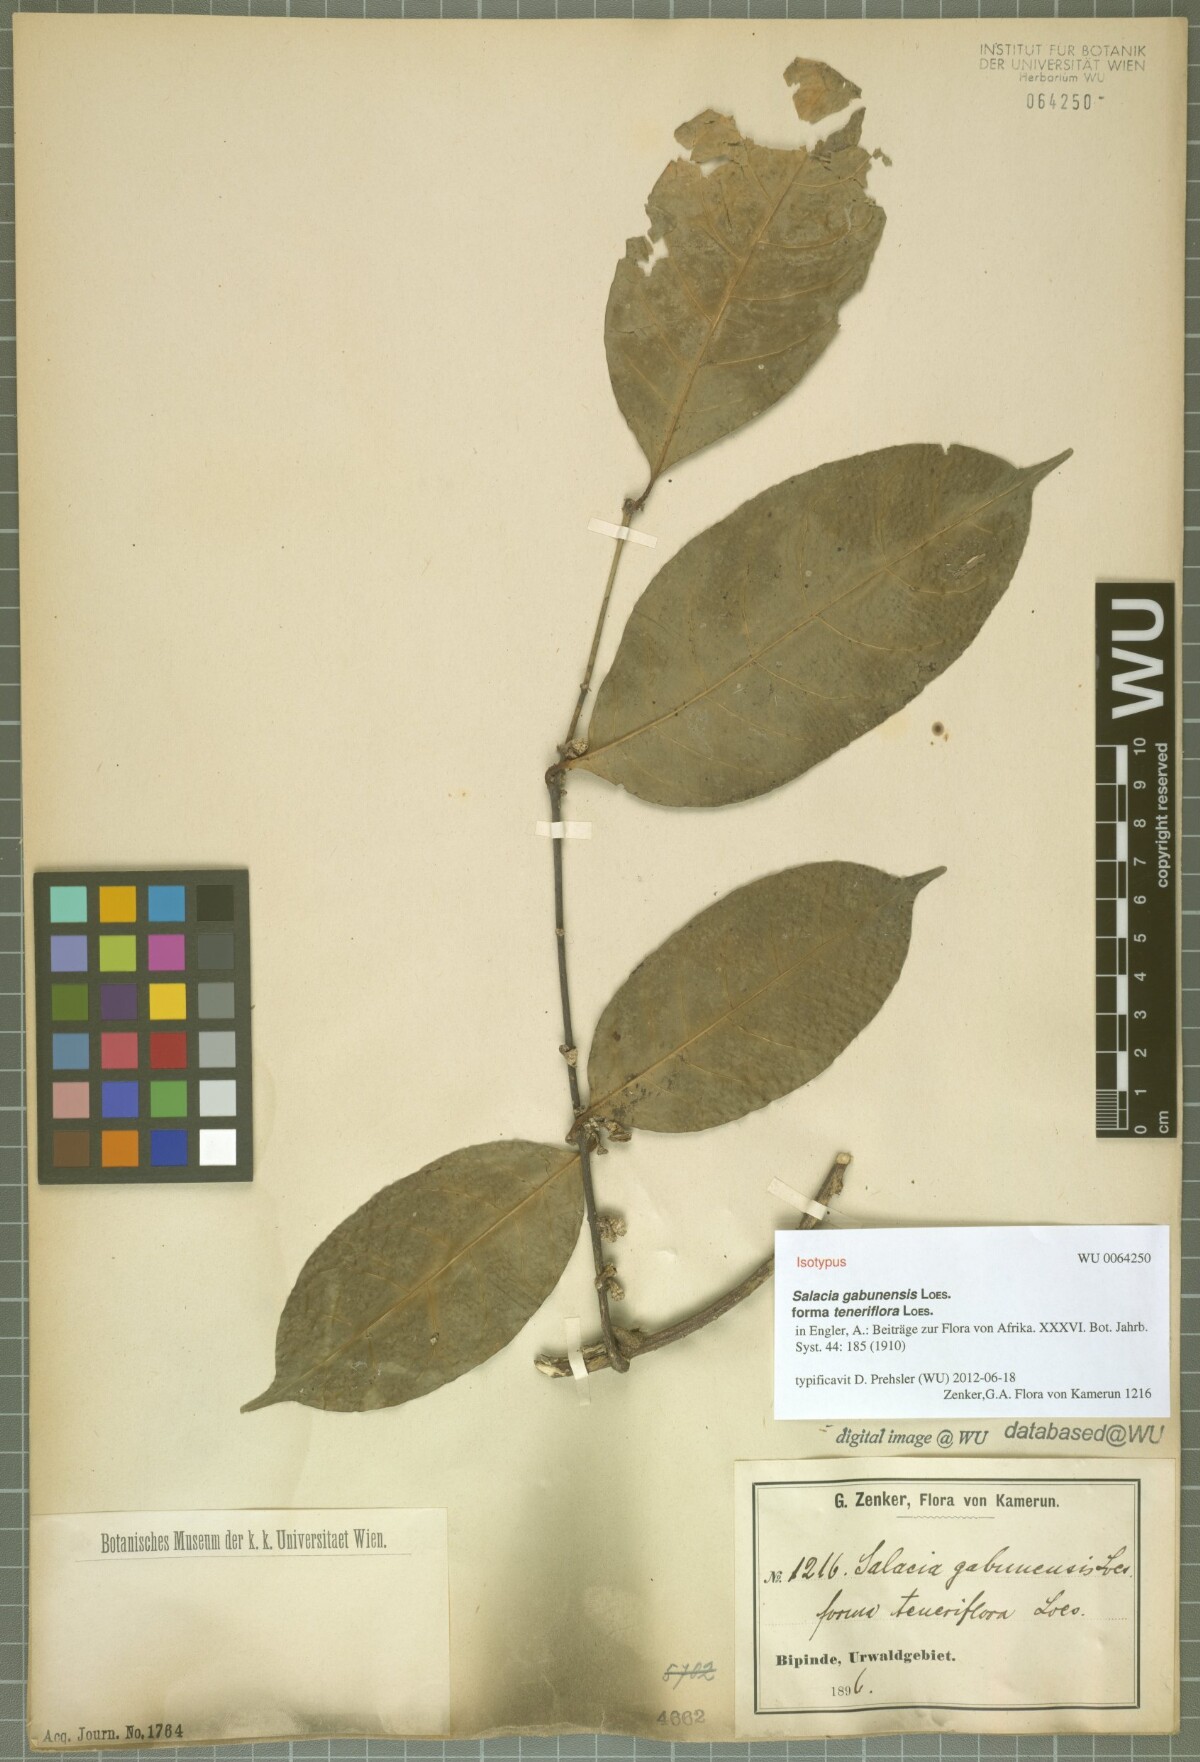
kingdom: Plantae
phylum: Tracheophyta
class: Magnoliopsida
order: Celastrales
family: Celastraceae
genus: Salacia
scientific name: Salacia gabunensis
